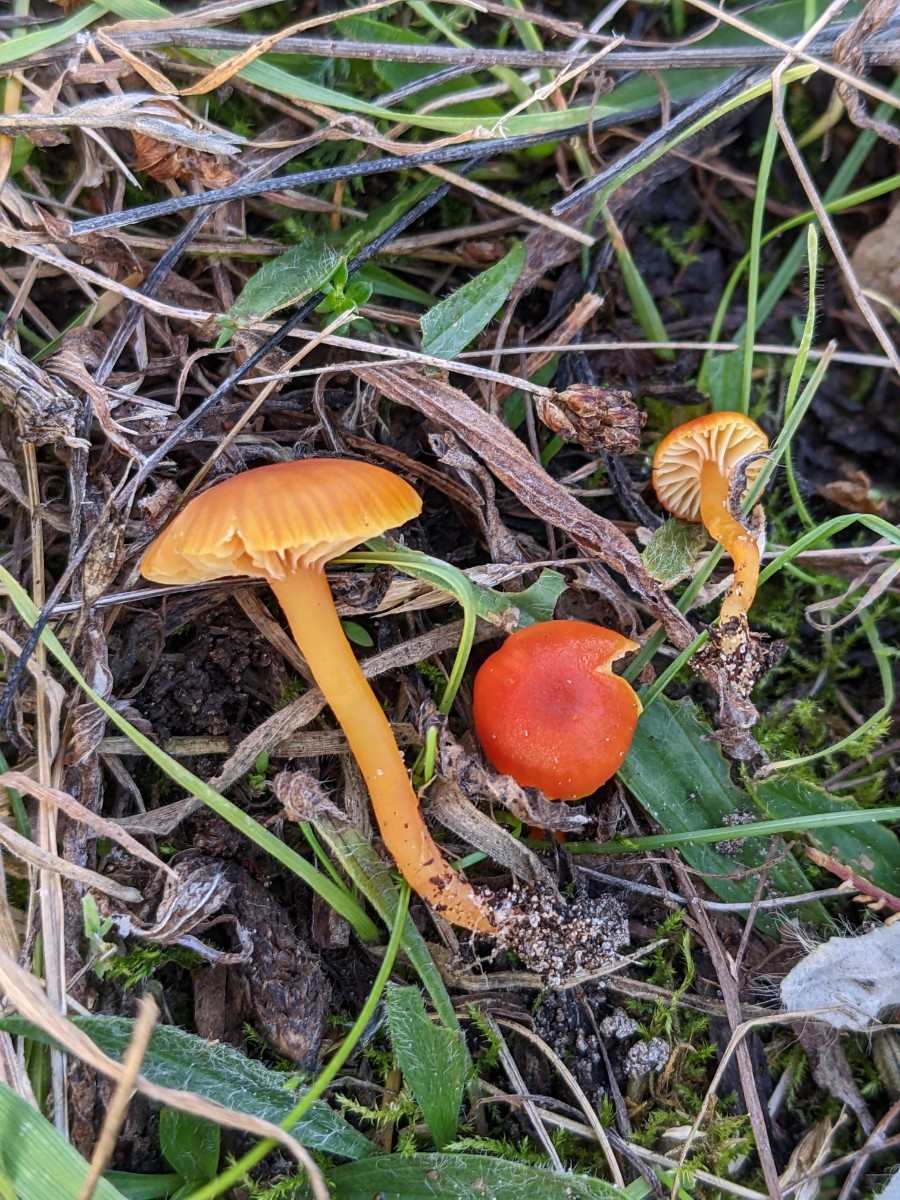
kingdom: Fungi
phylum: Basidiomycota
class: Agaricomycetes
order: Agaricales
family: Hygrophoraceae
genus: Hygrocybe
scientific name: Hygrocybe insipida
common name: liden vokshat
